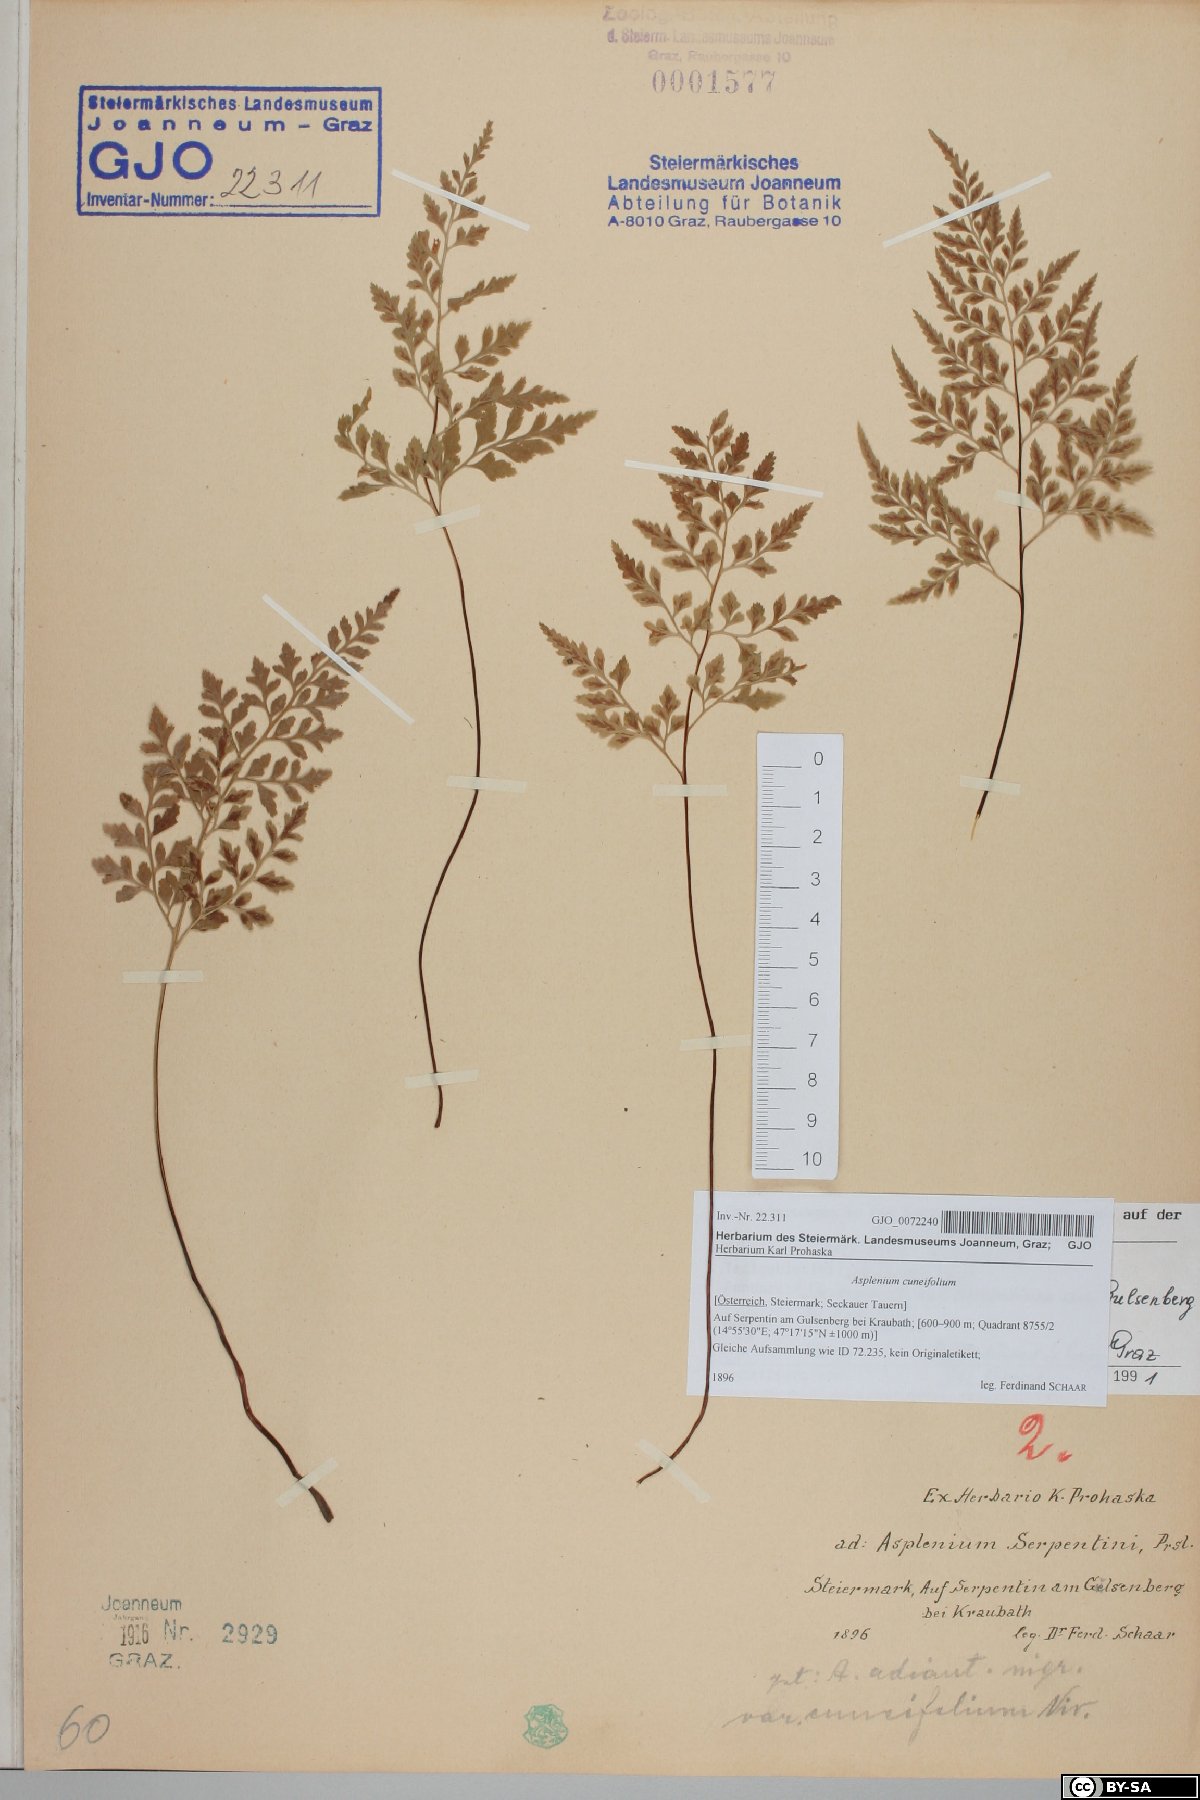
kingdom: Plantae
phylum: Tracheophyta
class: Polypodiopsida
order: Polypodiales
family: Aspleniaceae
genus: Asplenium
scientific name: Asplenium cuneifolium
